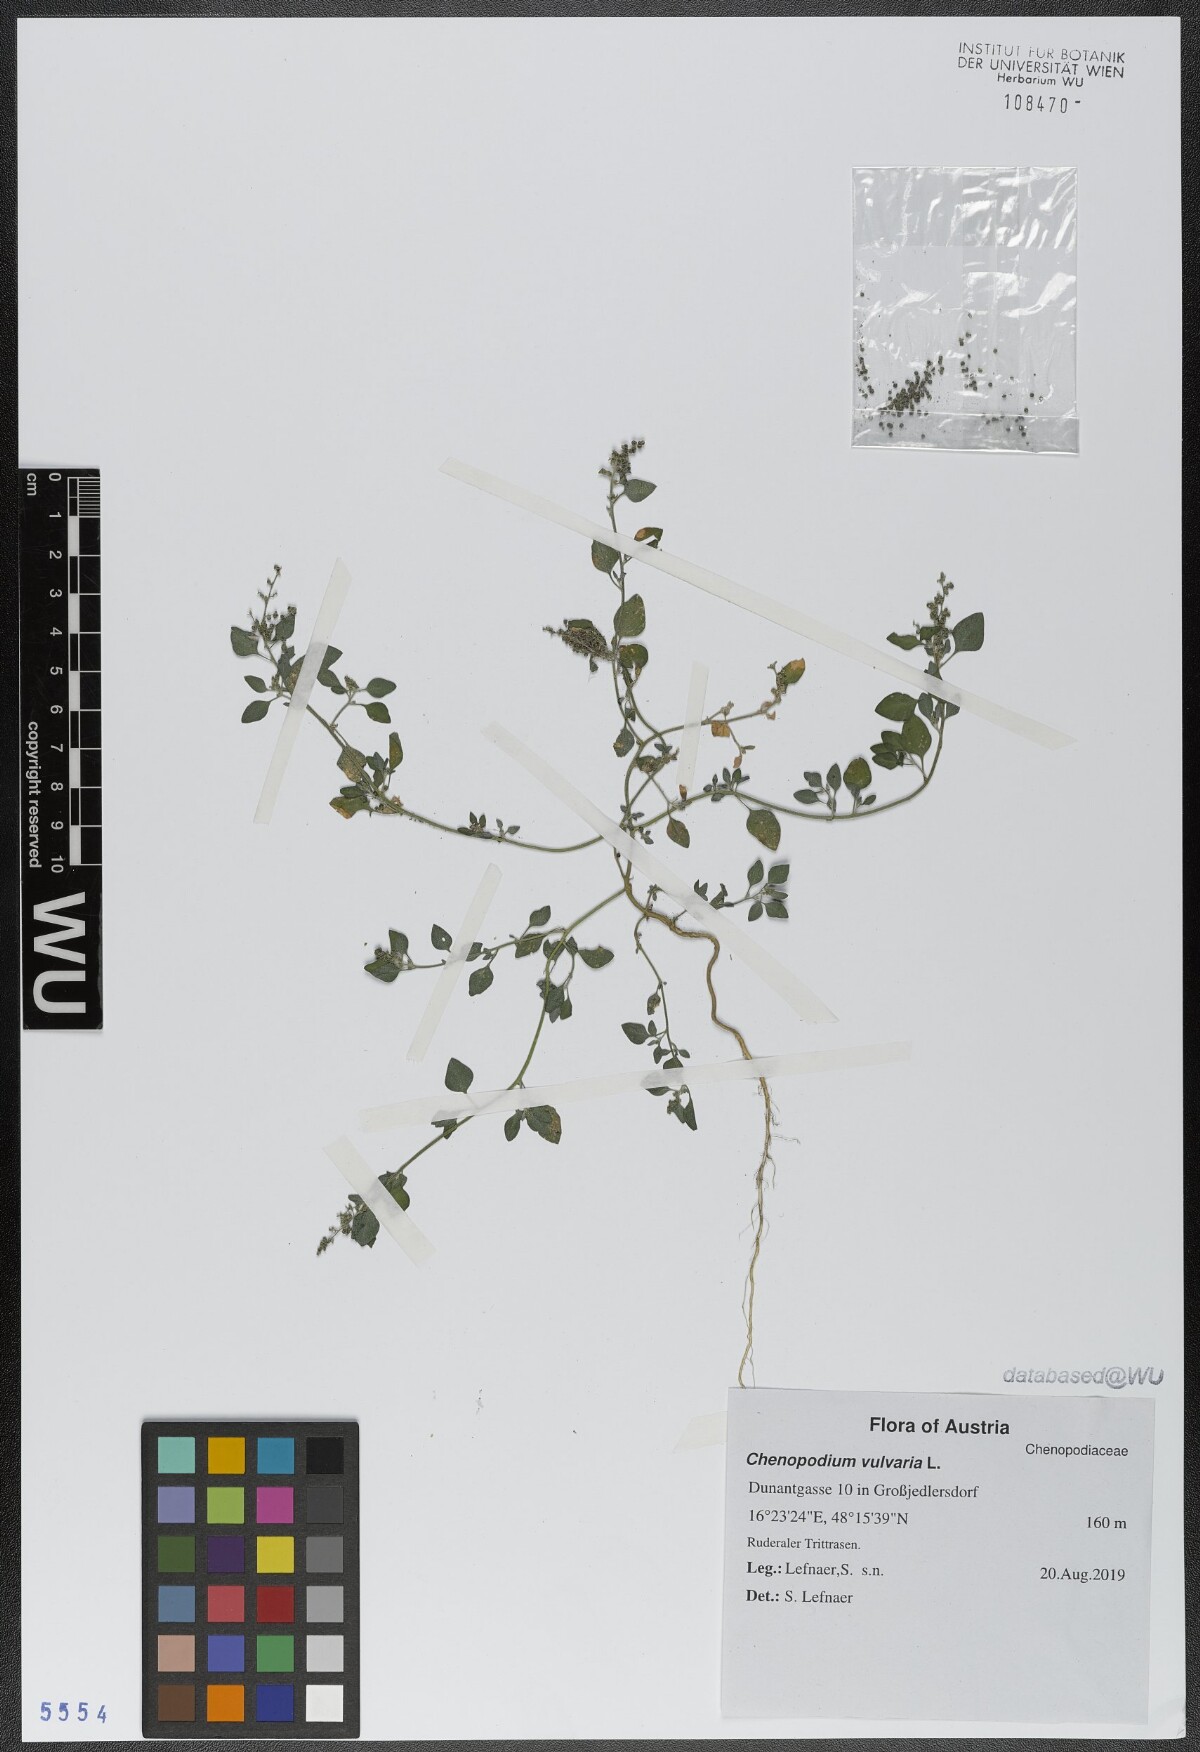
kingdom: Plantae
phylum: Tracheophyta
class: Magnoliopsida
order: Caryophyllales
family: Amaranthaceae
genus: Chenopodium
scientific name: Chenopodium vulvaria
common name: Stinking goosefoot
